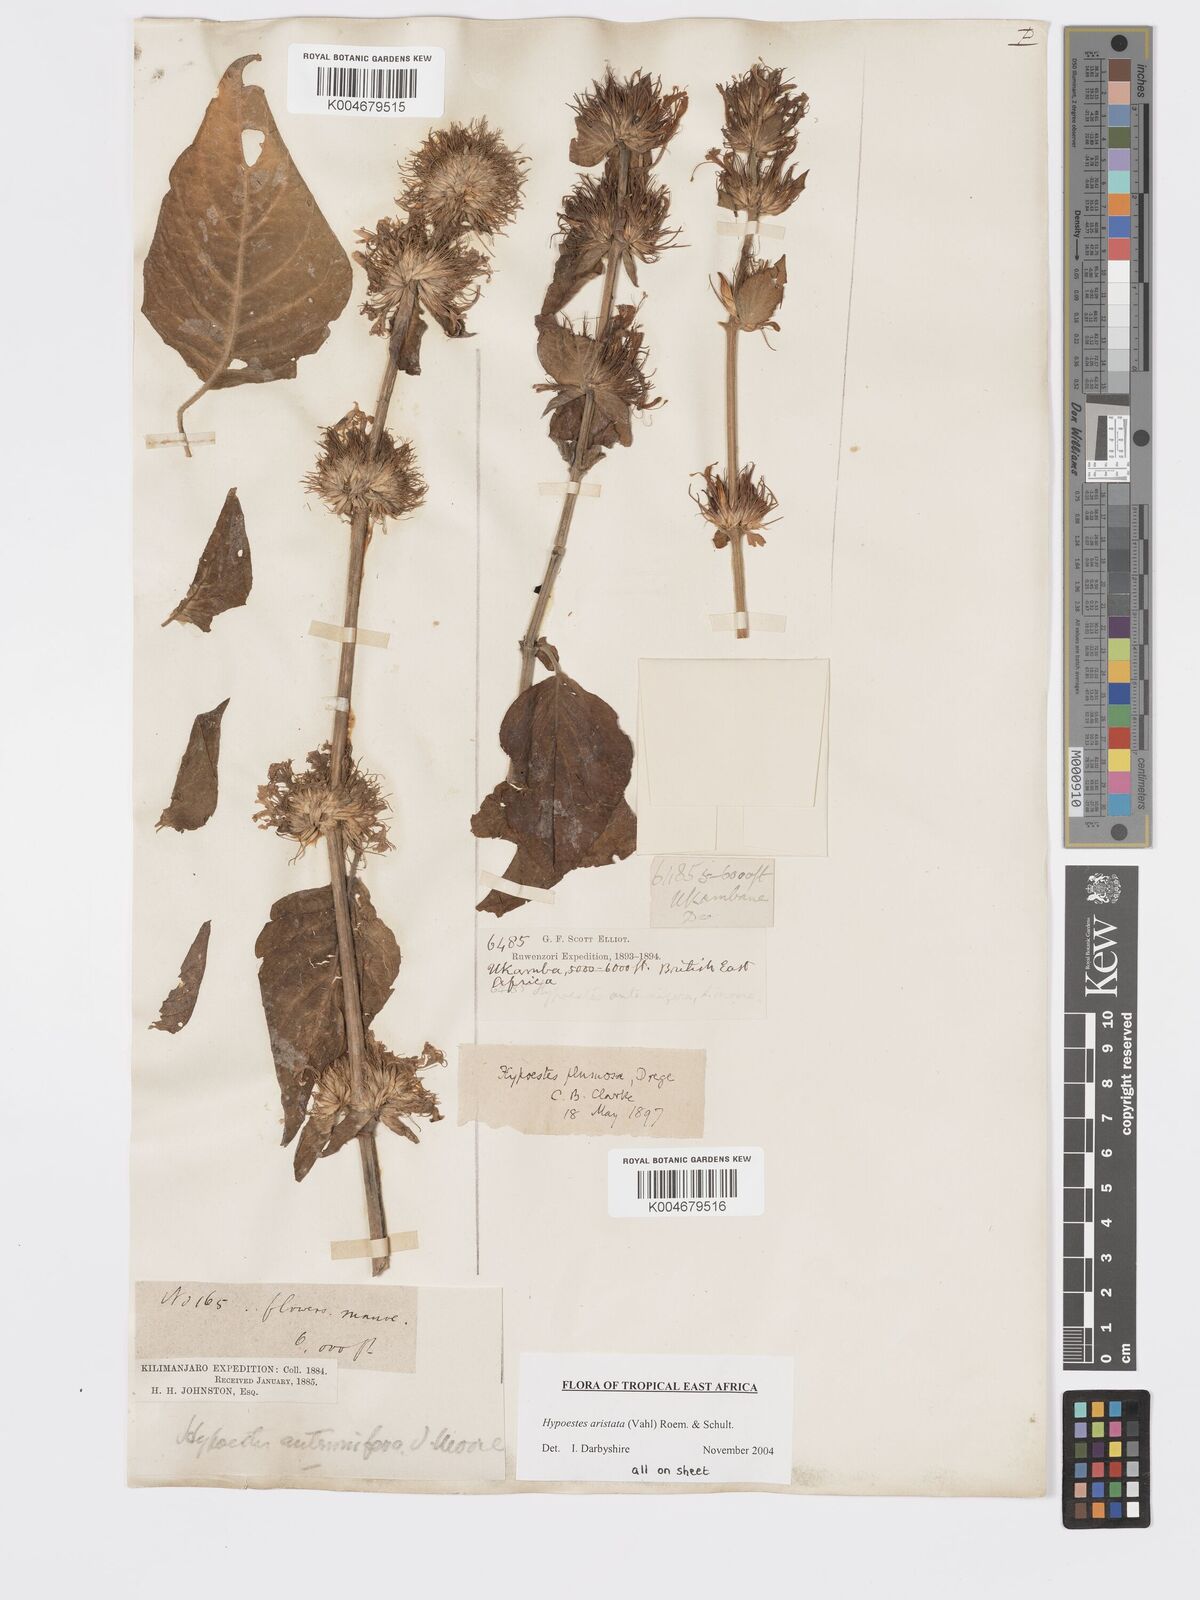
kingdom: Plantae
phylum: Tracheophyta
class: Magnoliopsida
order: Lamiales
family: Acanthaceae
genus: Hypoestes
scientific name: Hypoestes aristata
